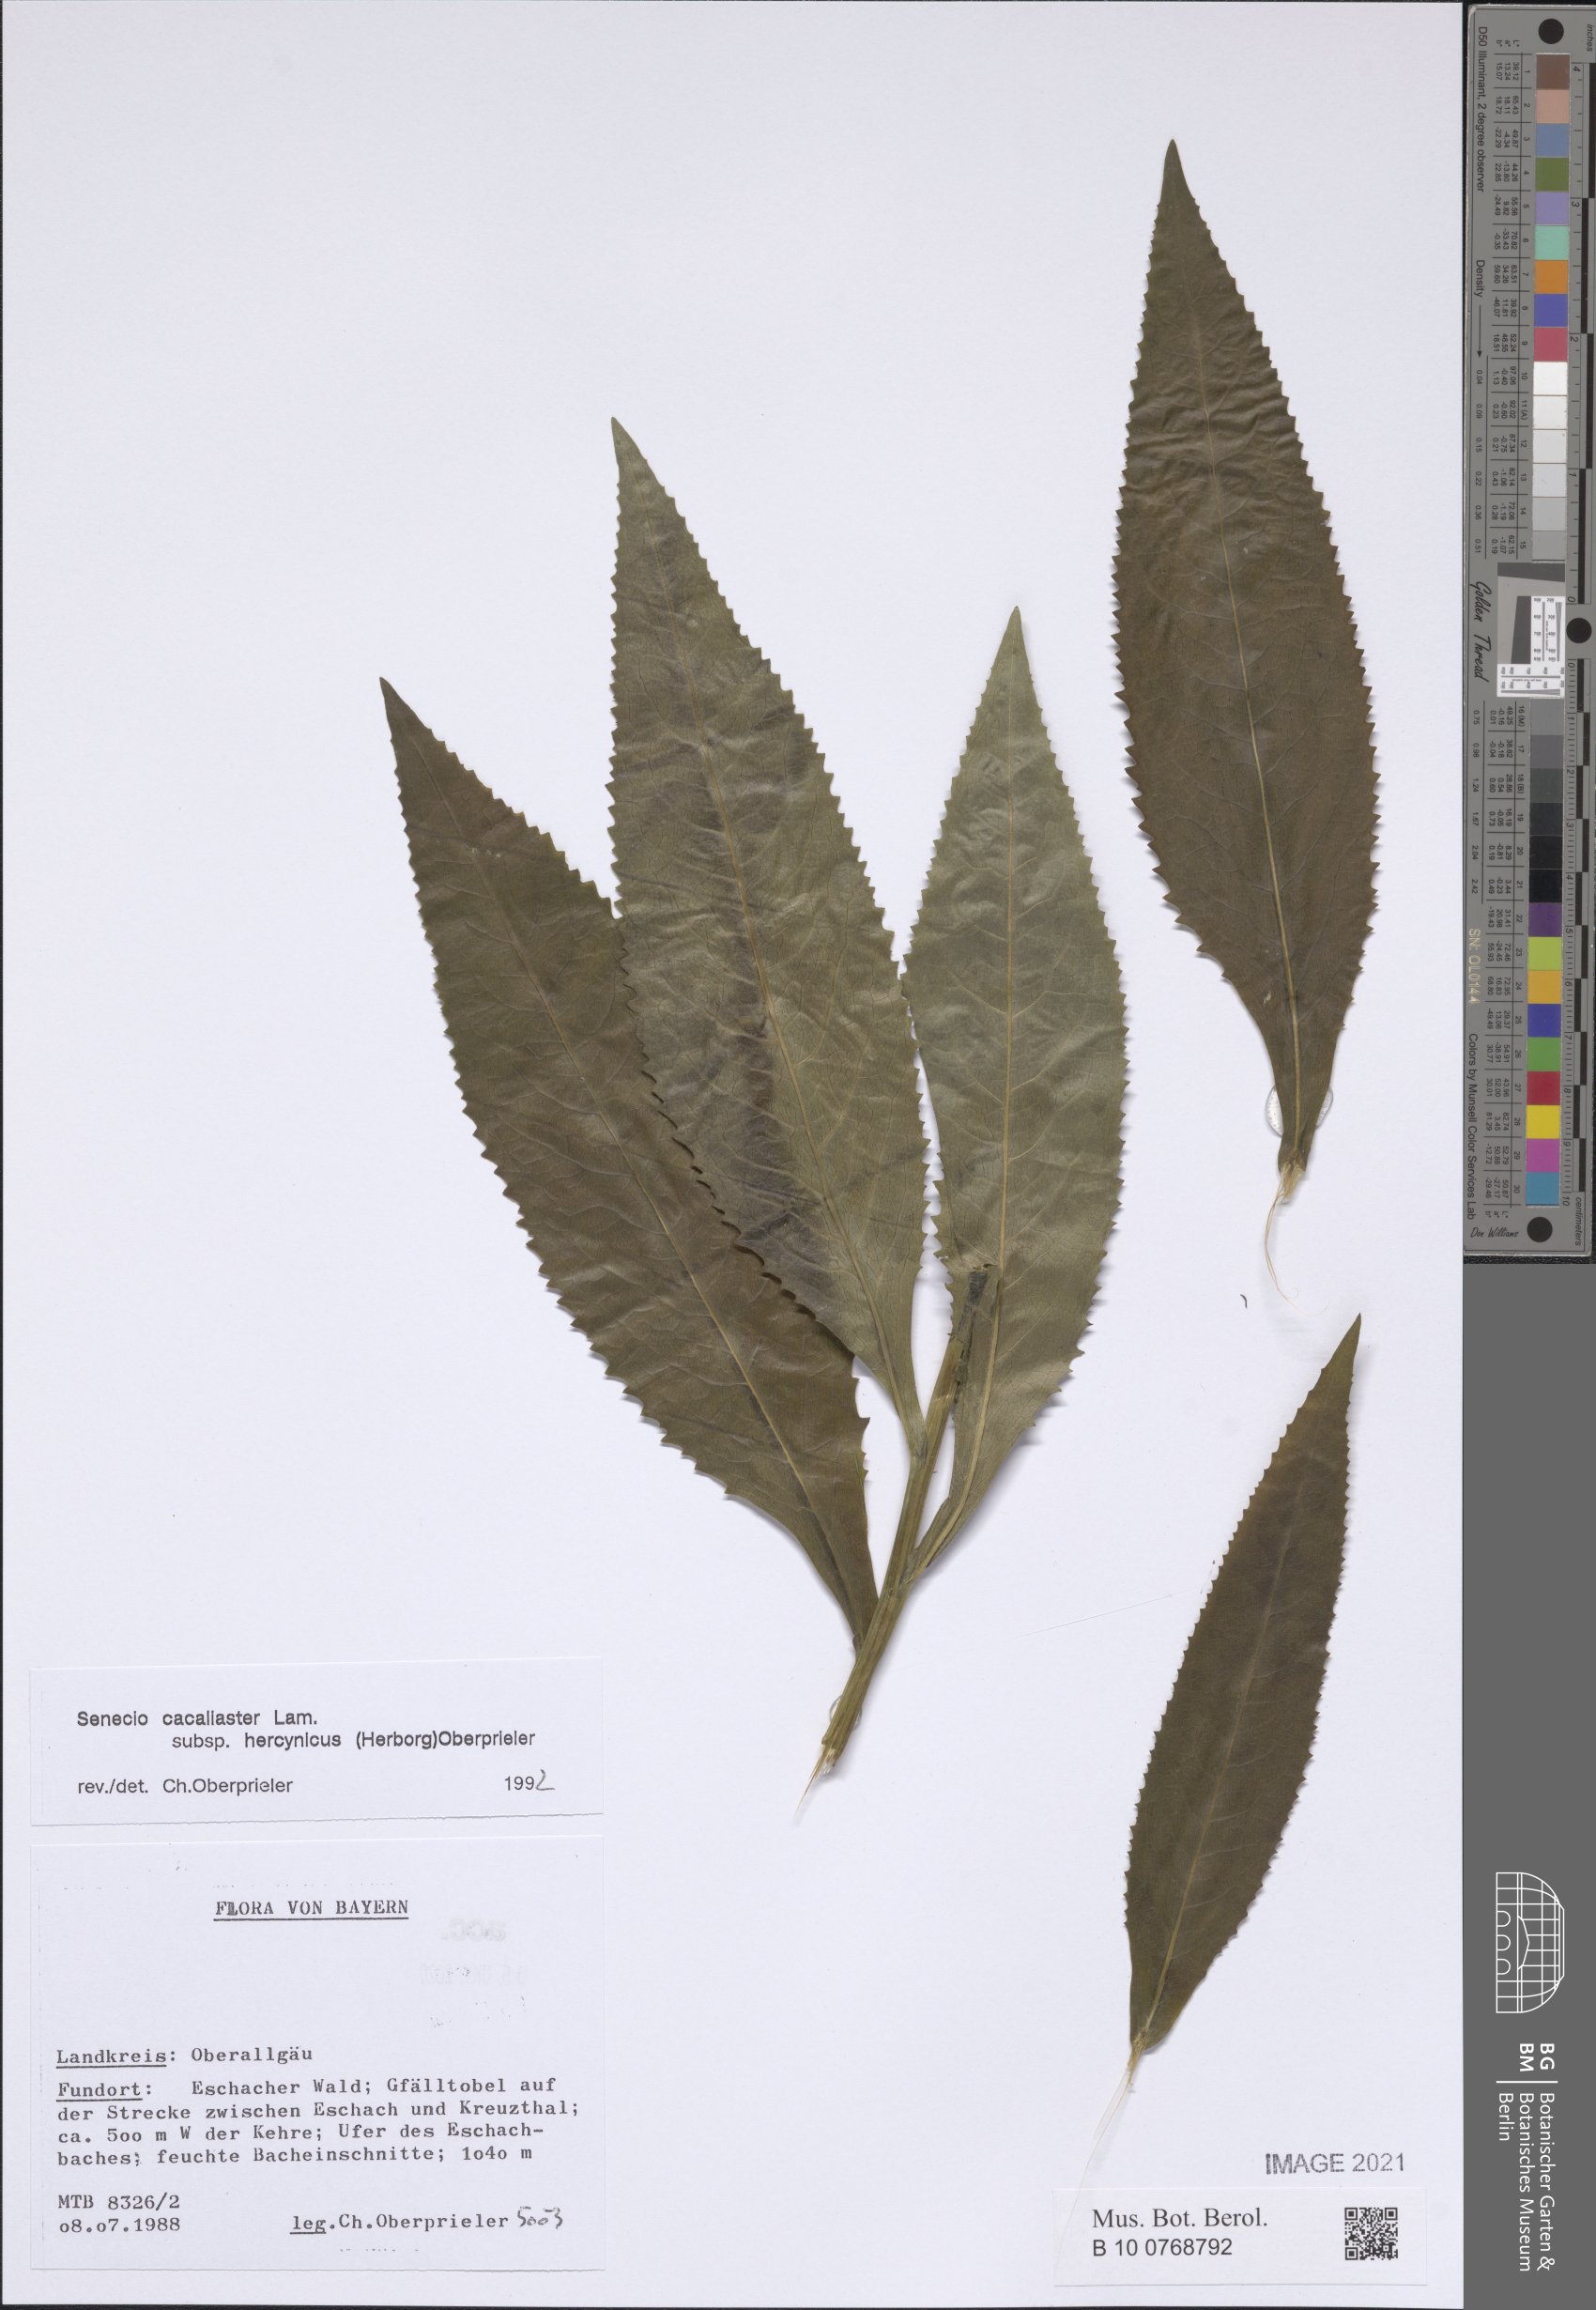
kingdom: Plantae
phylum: Tracheophyta
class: Magnoliopsida
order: Asterales
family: Asteraceae
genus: Senecio
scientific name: Senecio hercynicus
